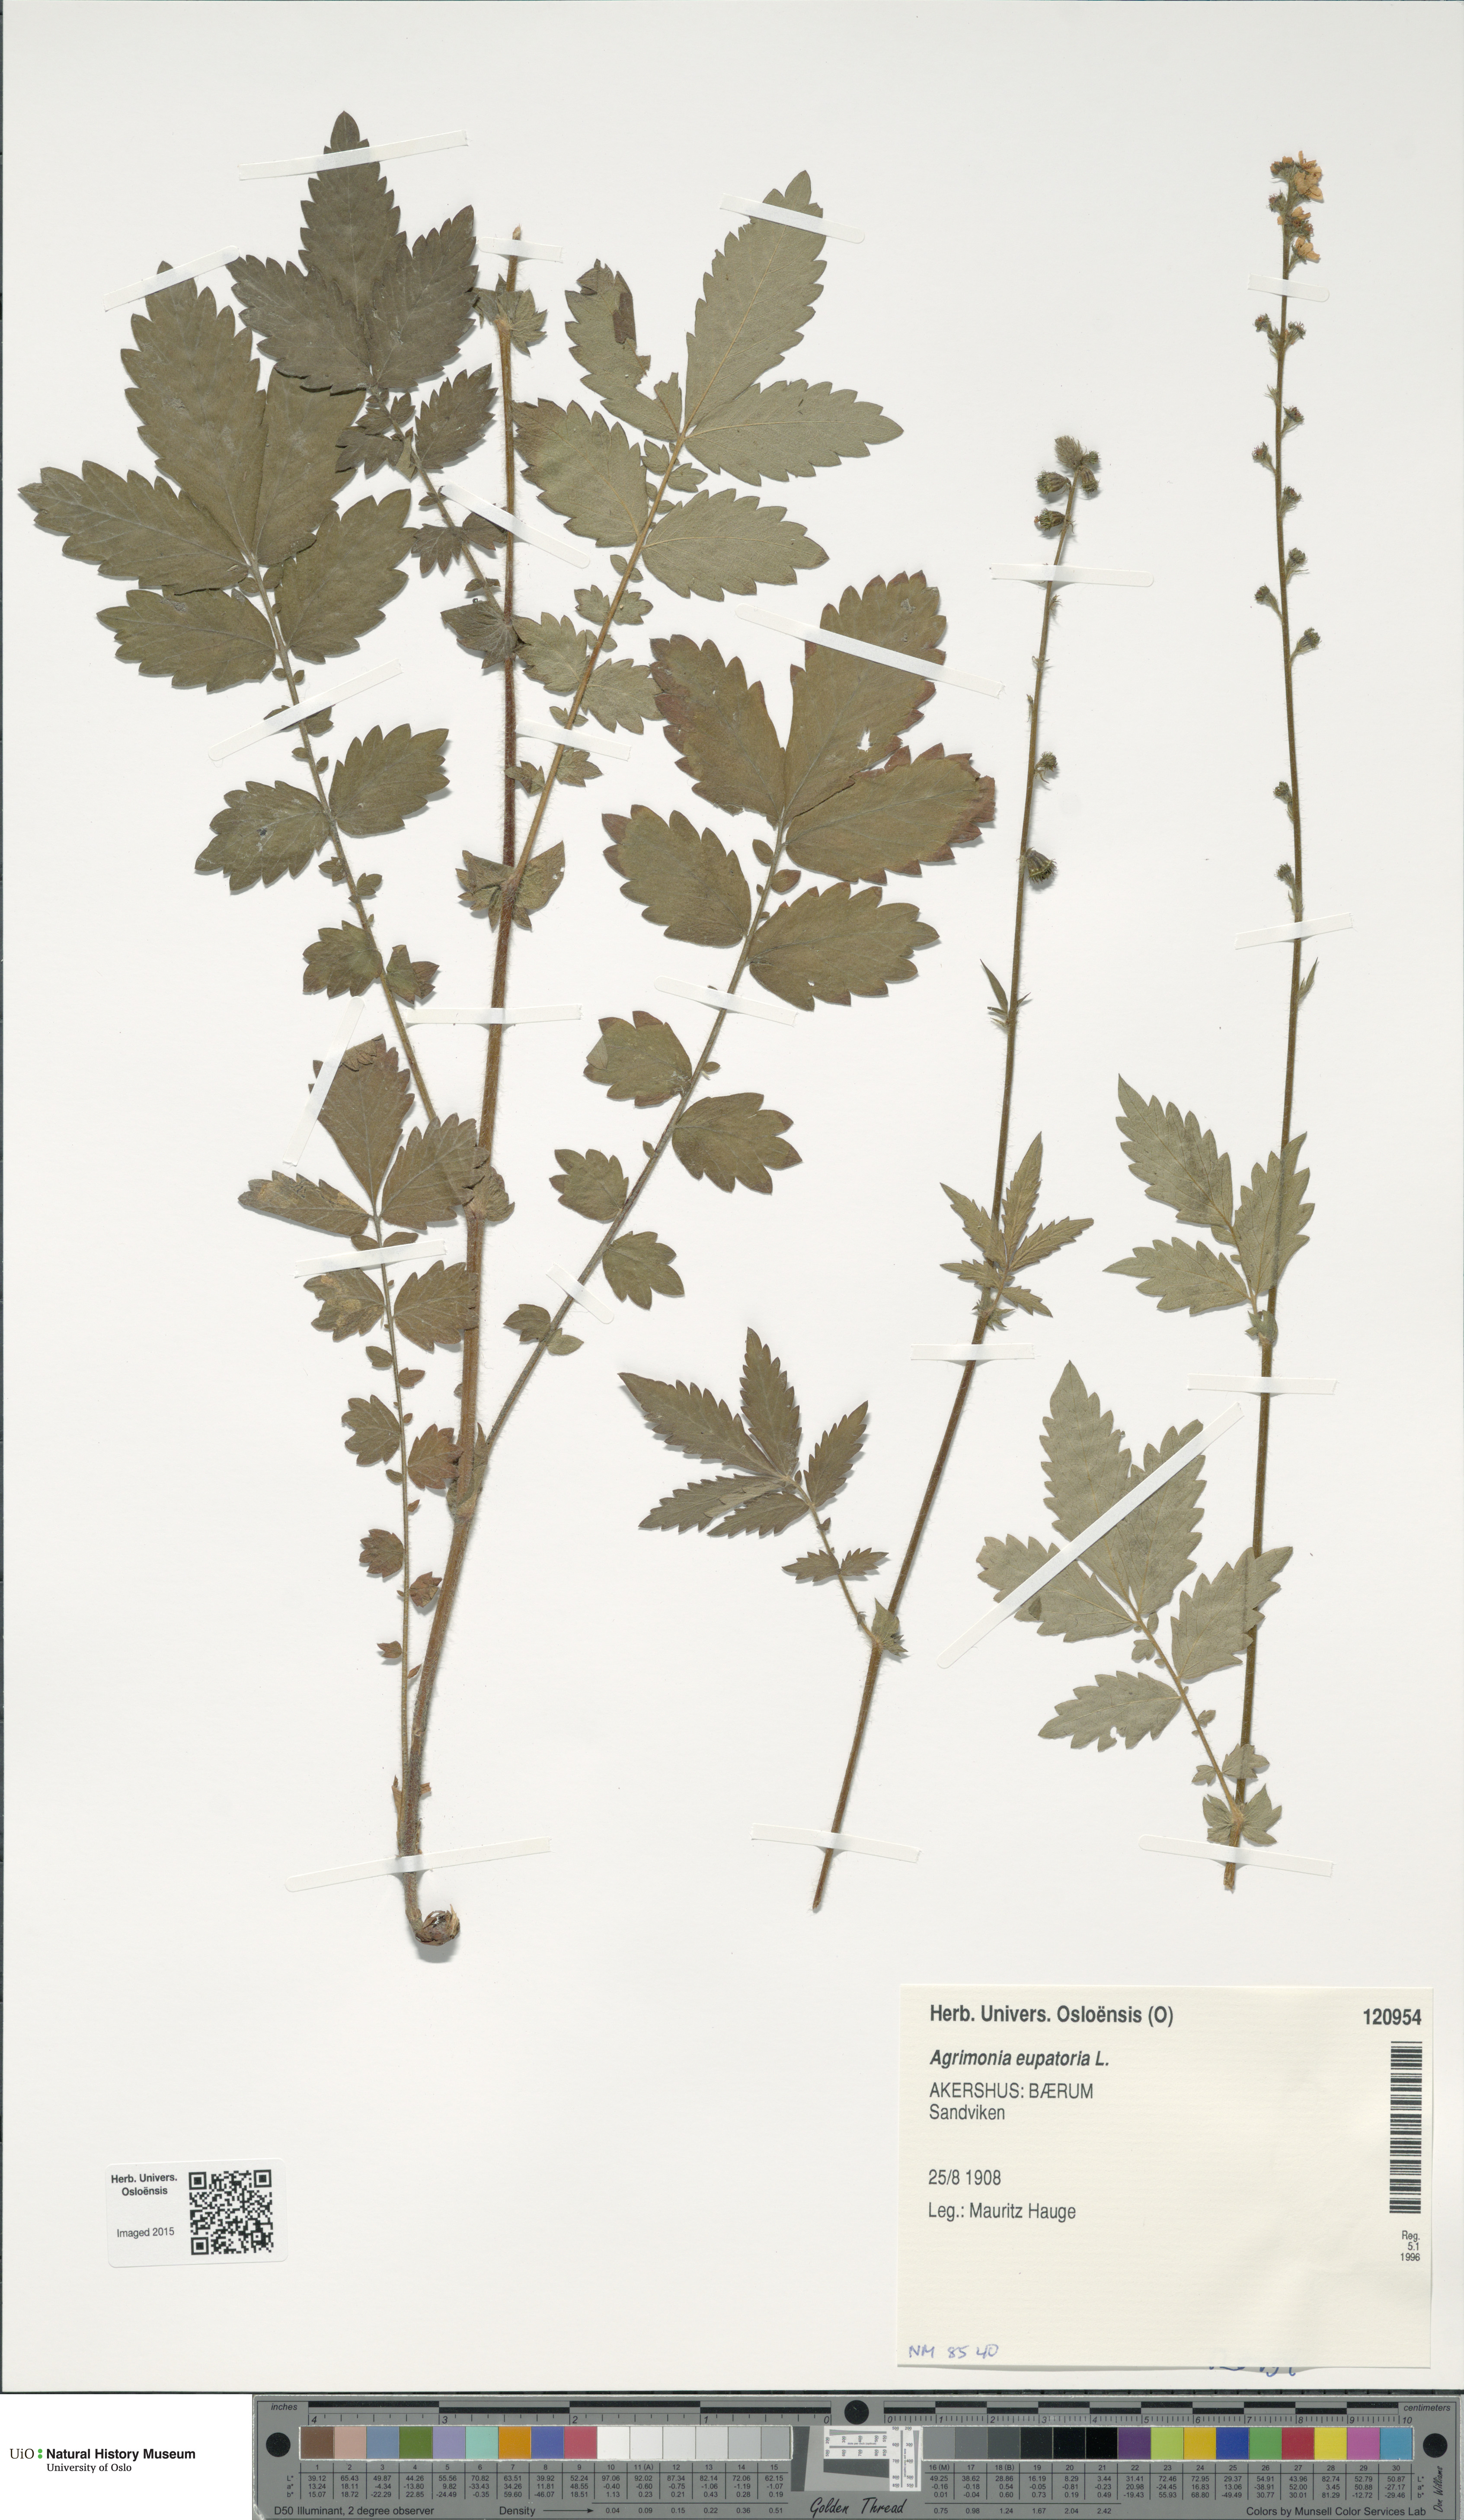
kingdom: Plantae
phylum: Tracheophyta
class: Magnoliopsida
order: Rosales
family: Rosaceae
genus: Agrimonia
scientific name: Agrimonia eupatoria
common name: Agrimony
